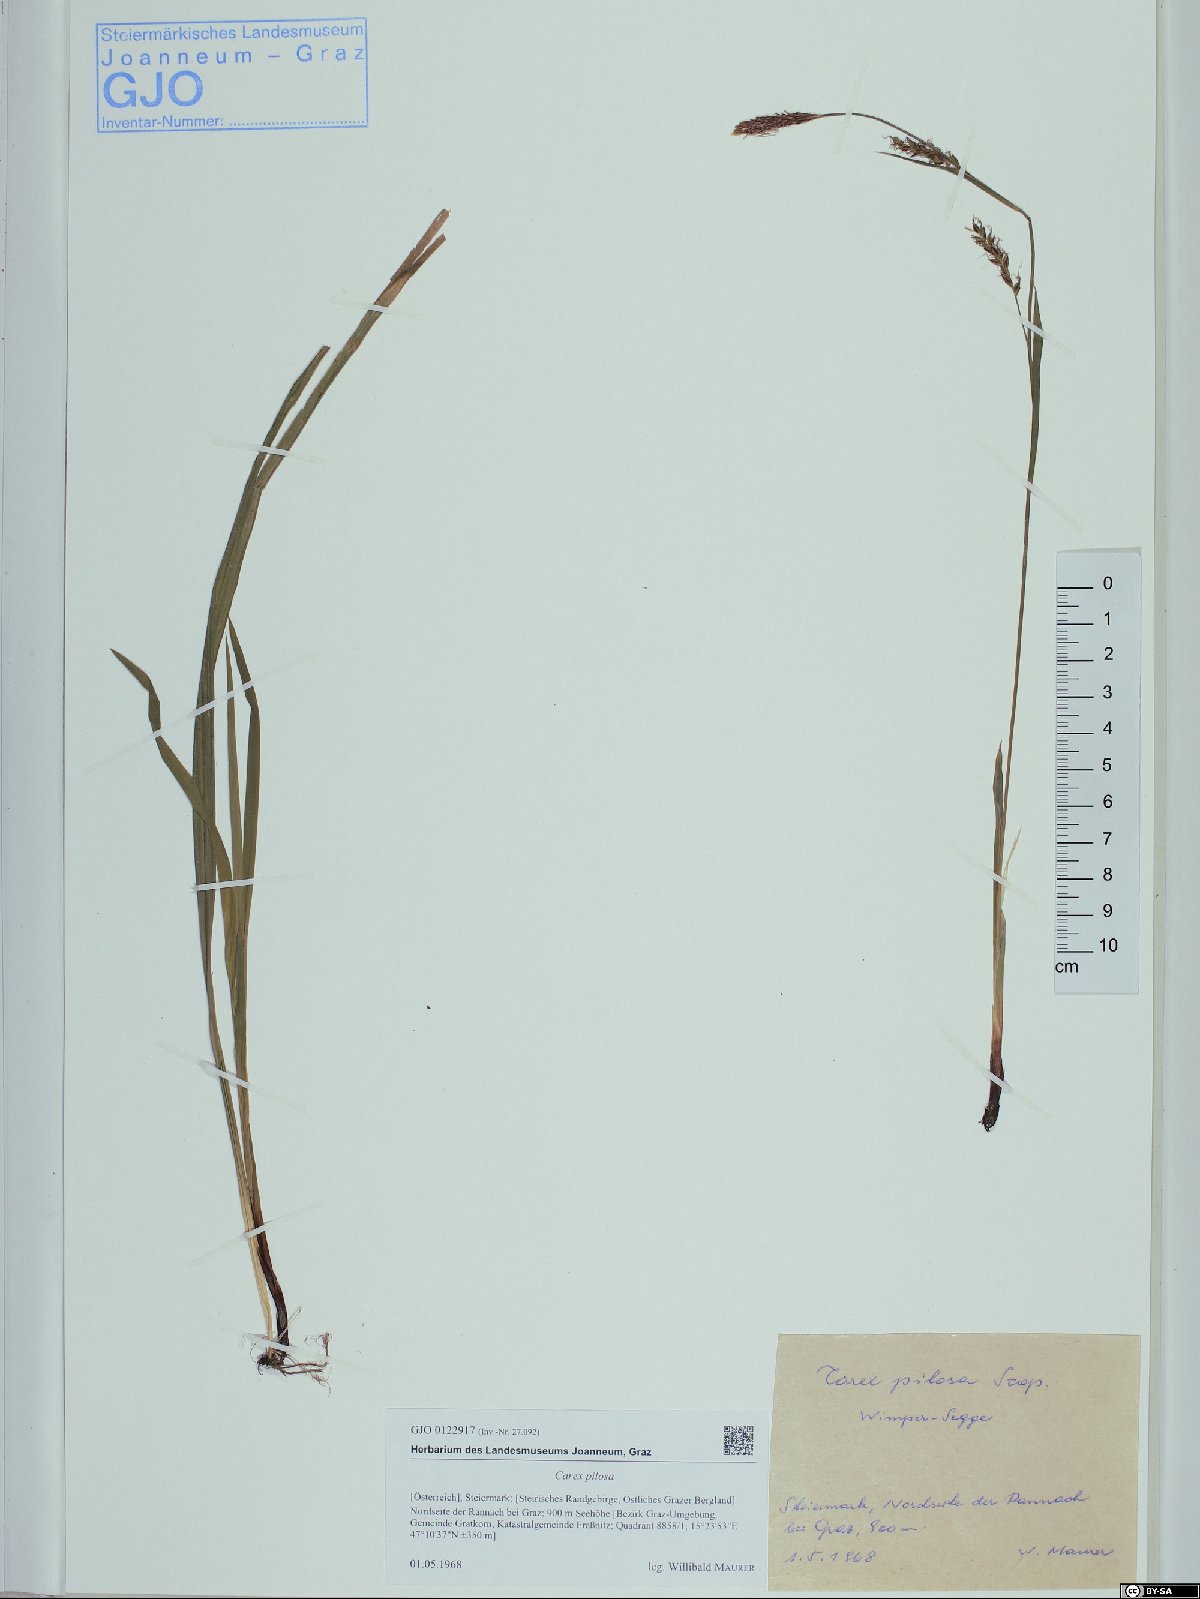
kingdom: Plantae
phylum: Tracheophyta
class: Liliopsida
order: Poales
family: Cyperaceae
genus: Carex
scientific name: Carex pilosa
